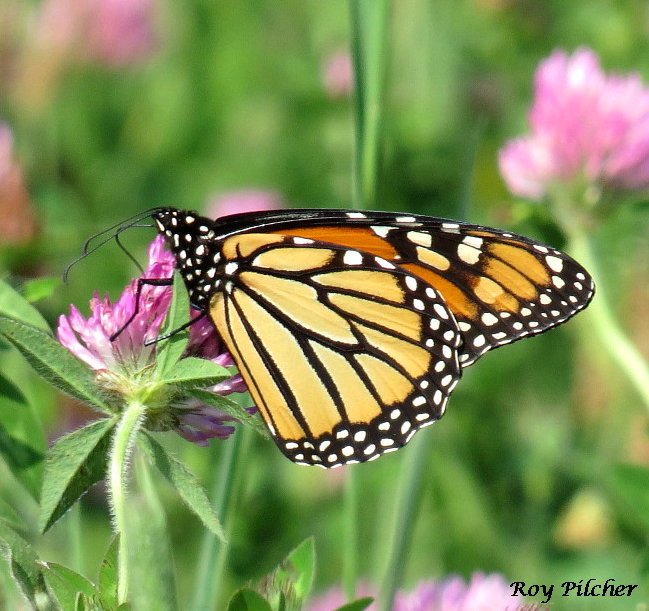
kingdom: Animalia
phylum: Arthropoda
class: Insecta
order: Lepidoptera
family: Nymphalidae
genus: Danaus
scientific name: Danaus plexippus
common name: Monarch
